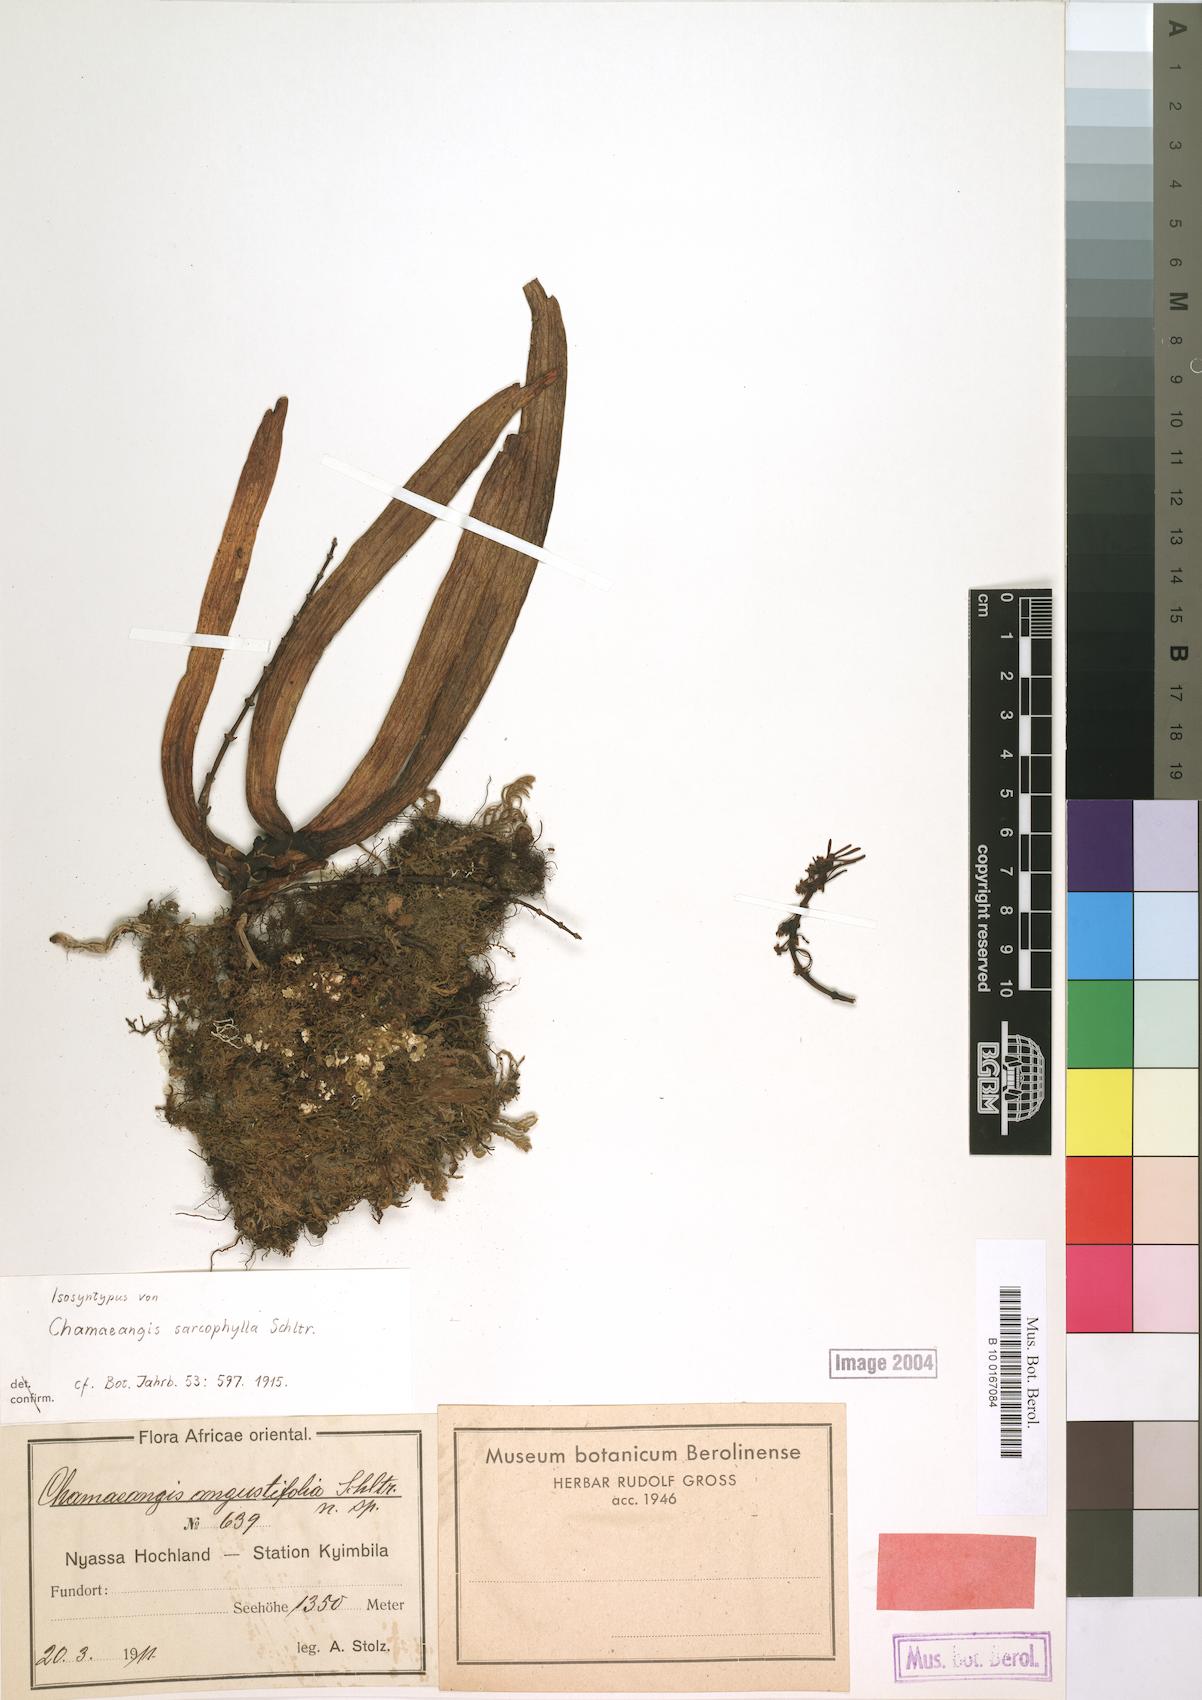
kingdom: Plantae
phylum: Tracheophyta
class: Liliopsida
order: Asparagales
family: Orchidaceae
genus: Diaphananthe
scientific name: Diaphananthe sarcophylla
